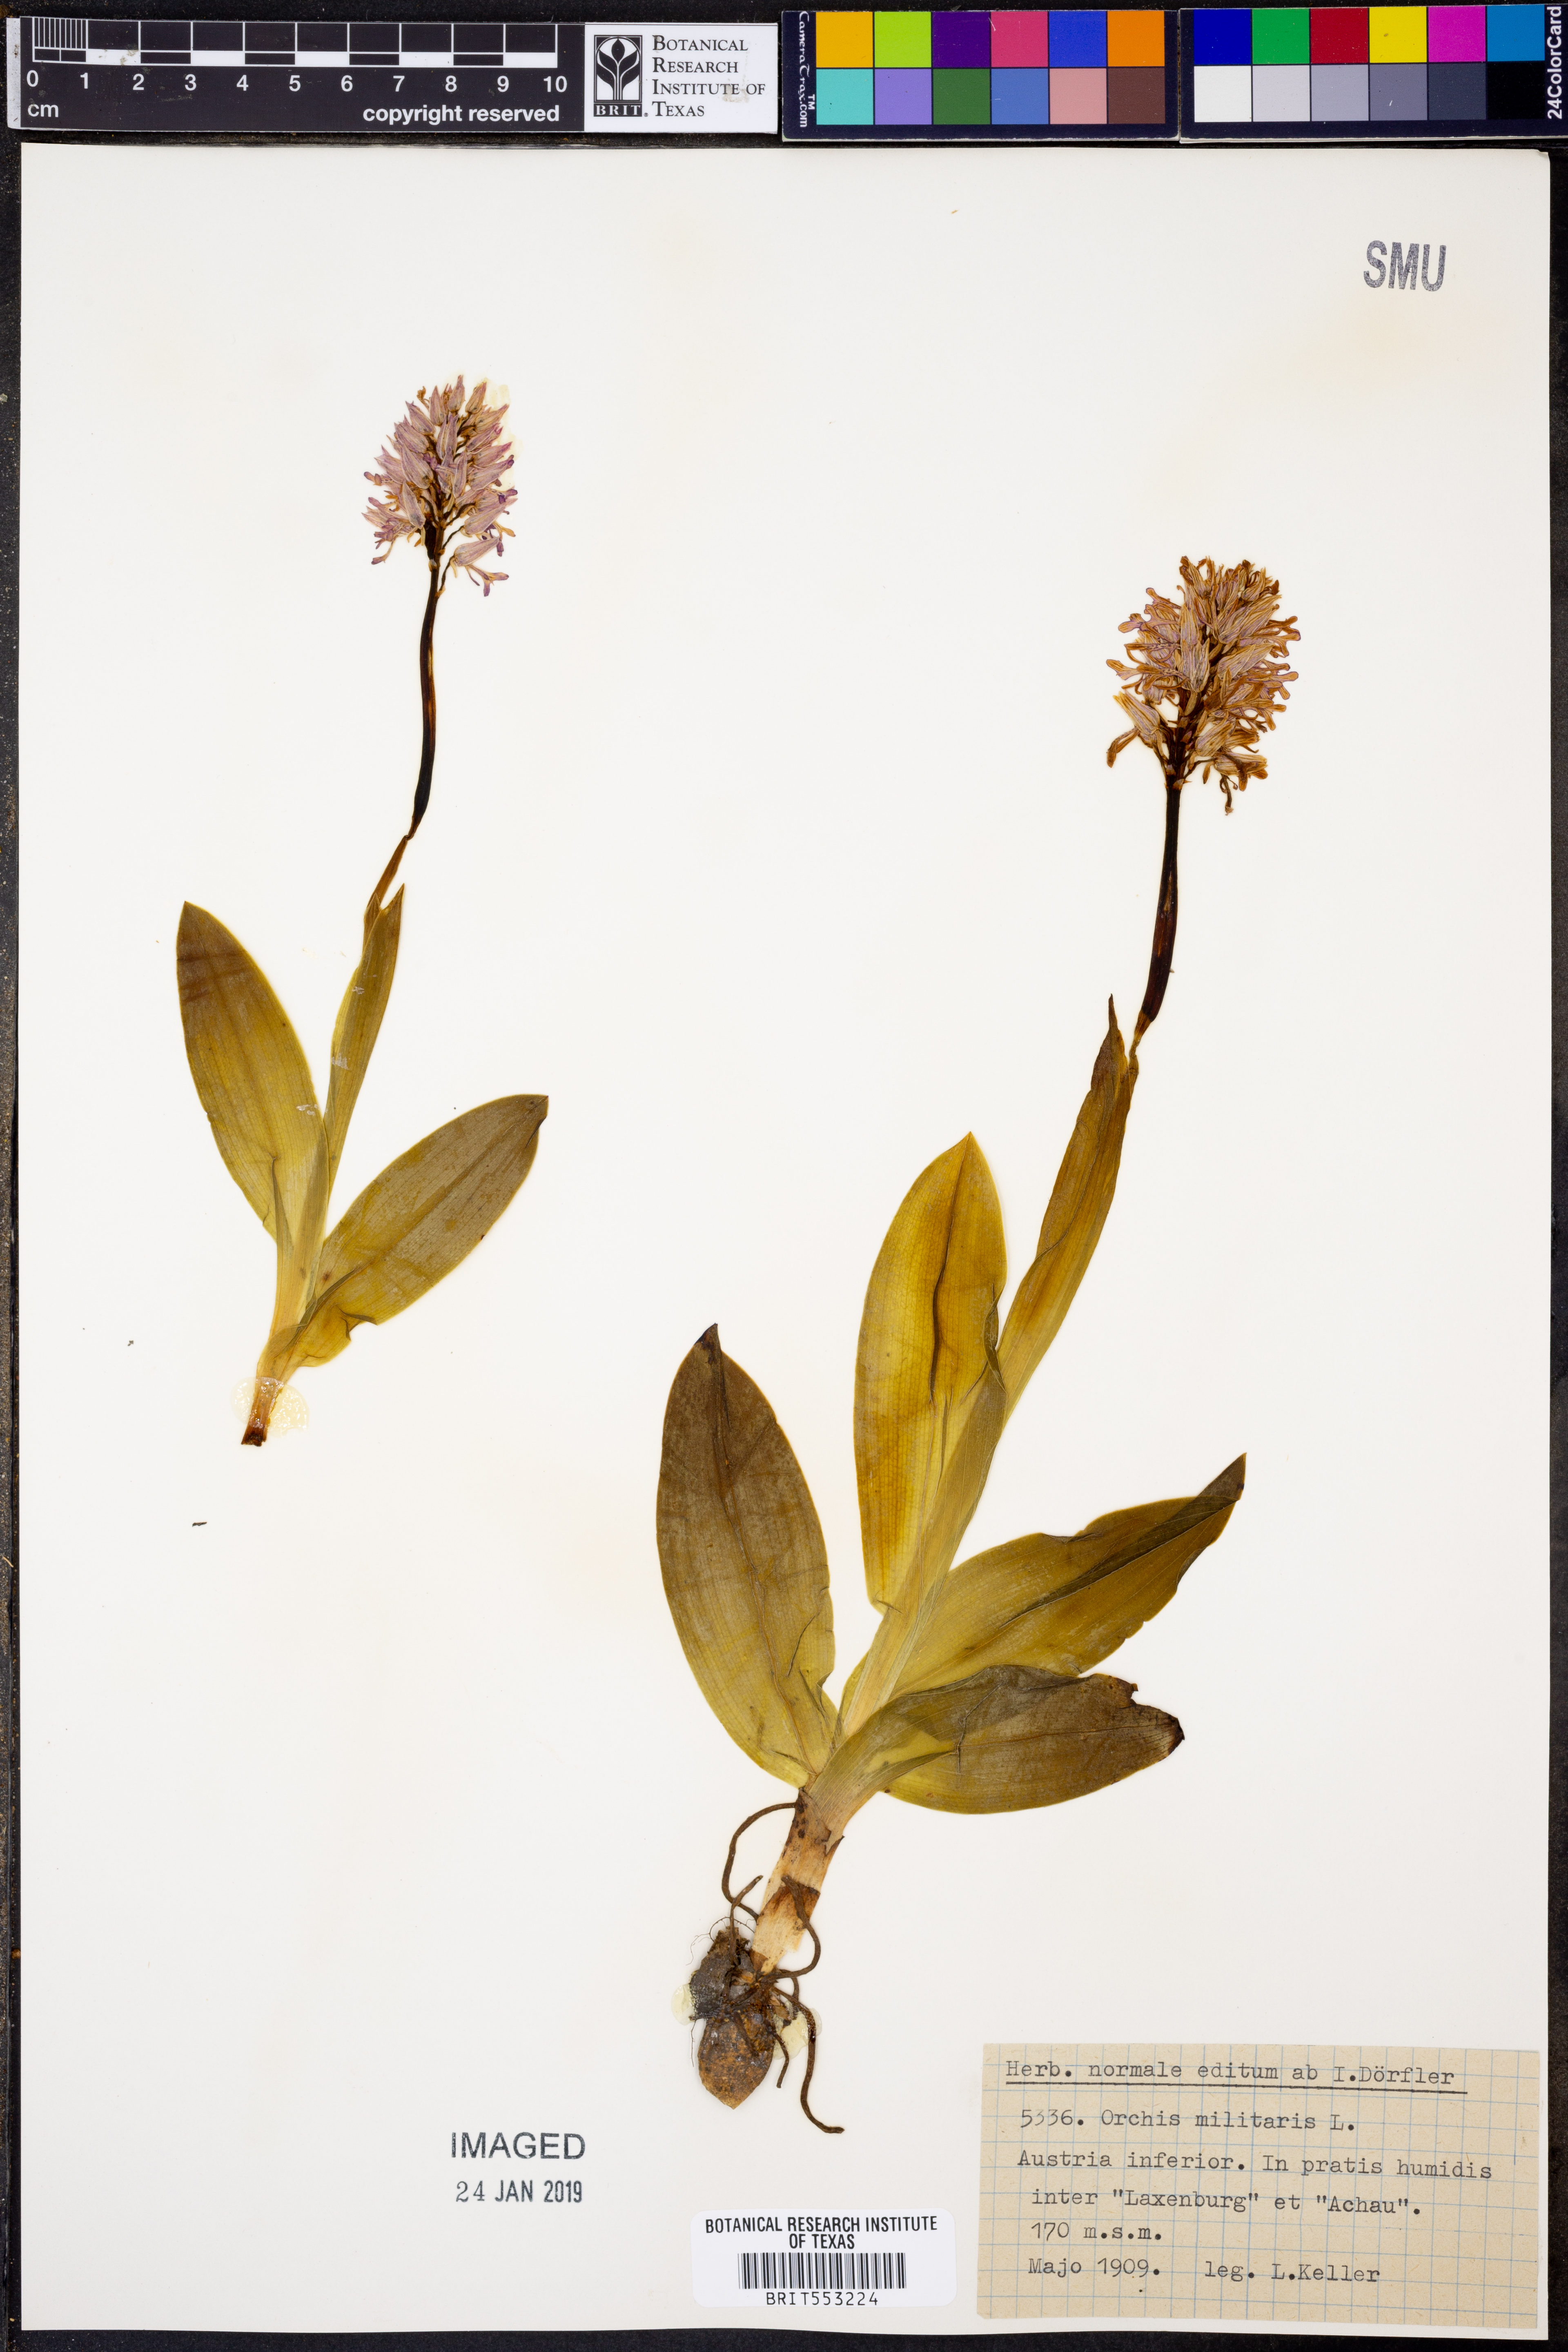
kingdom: Plantae
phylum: Tracheophyta
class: Liliopsida
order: Asparagales
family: Orchidaceae
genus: Orchis
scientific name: Orchis militaris
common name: Military orchid
